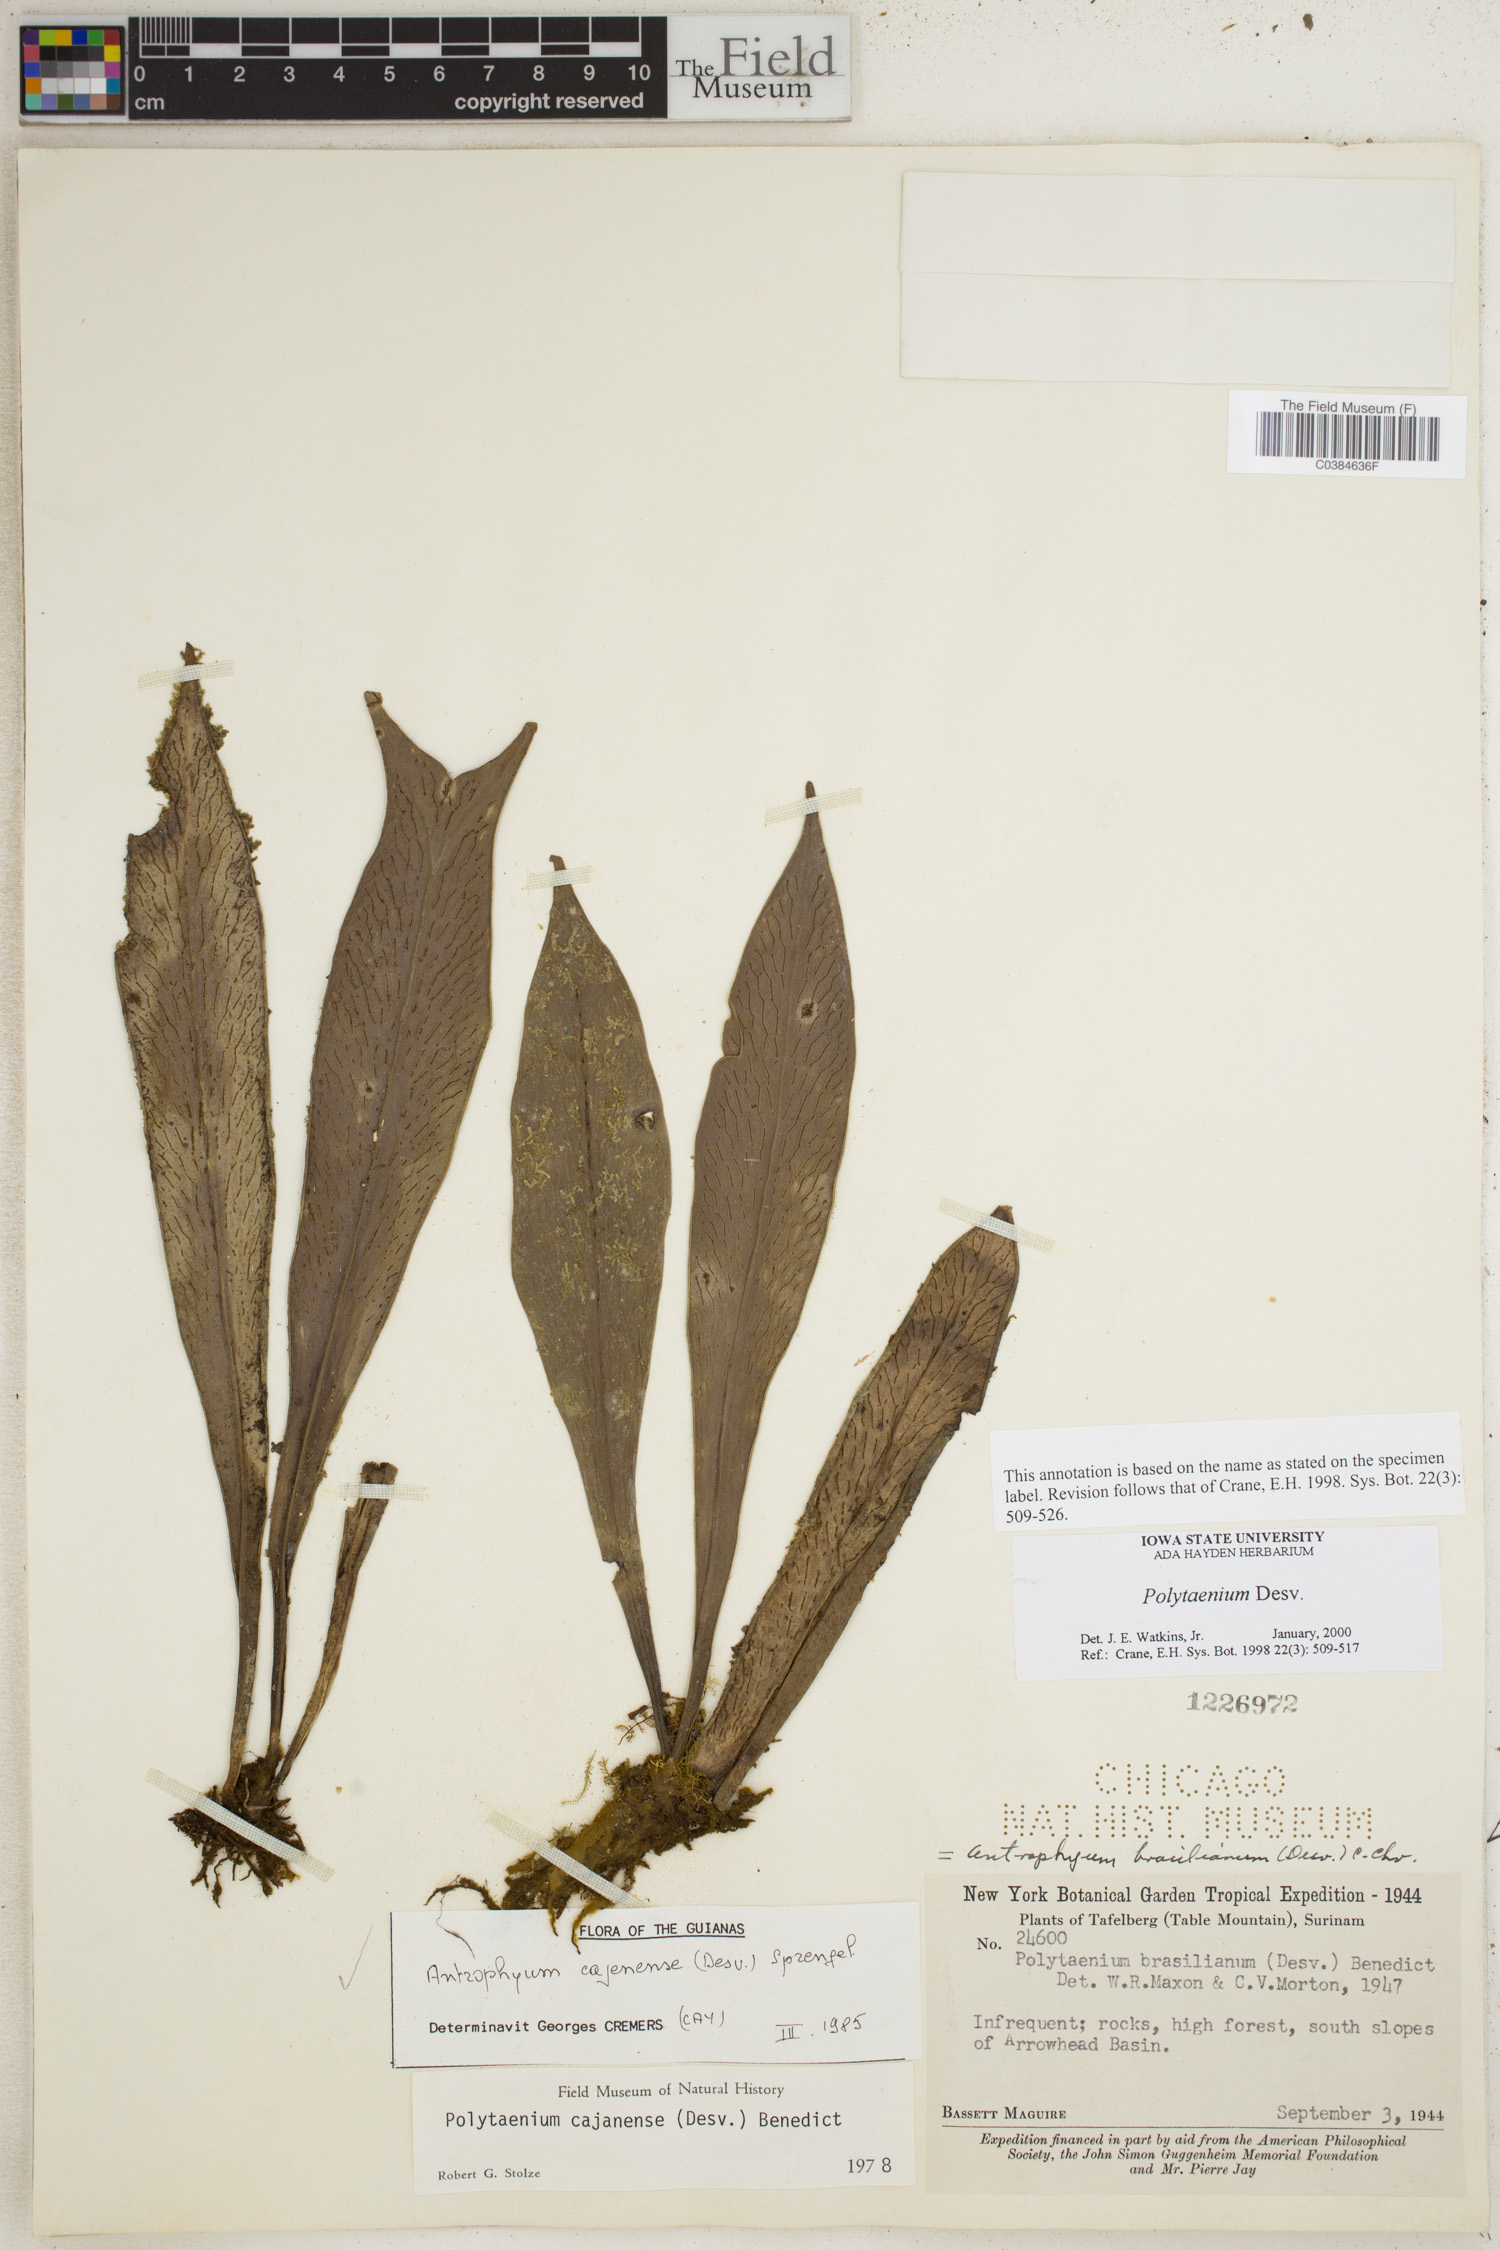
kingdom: Plantae
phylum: Tracheophyta
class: Polypodiopsida
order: Polypodiales
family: Pteridaceae
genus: Polytaenium
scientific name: Polytaenium
